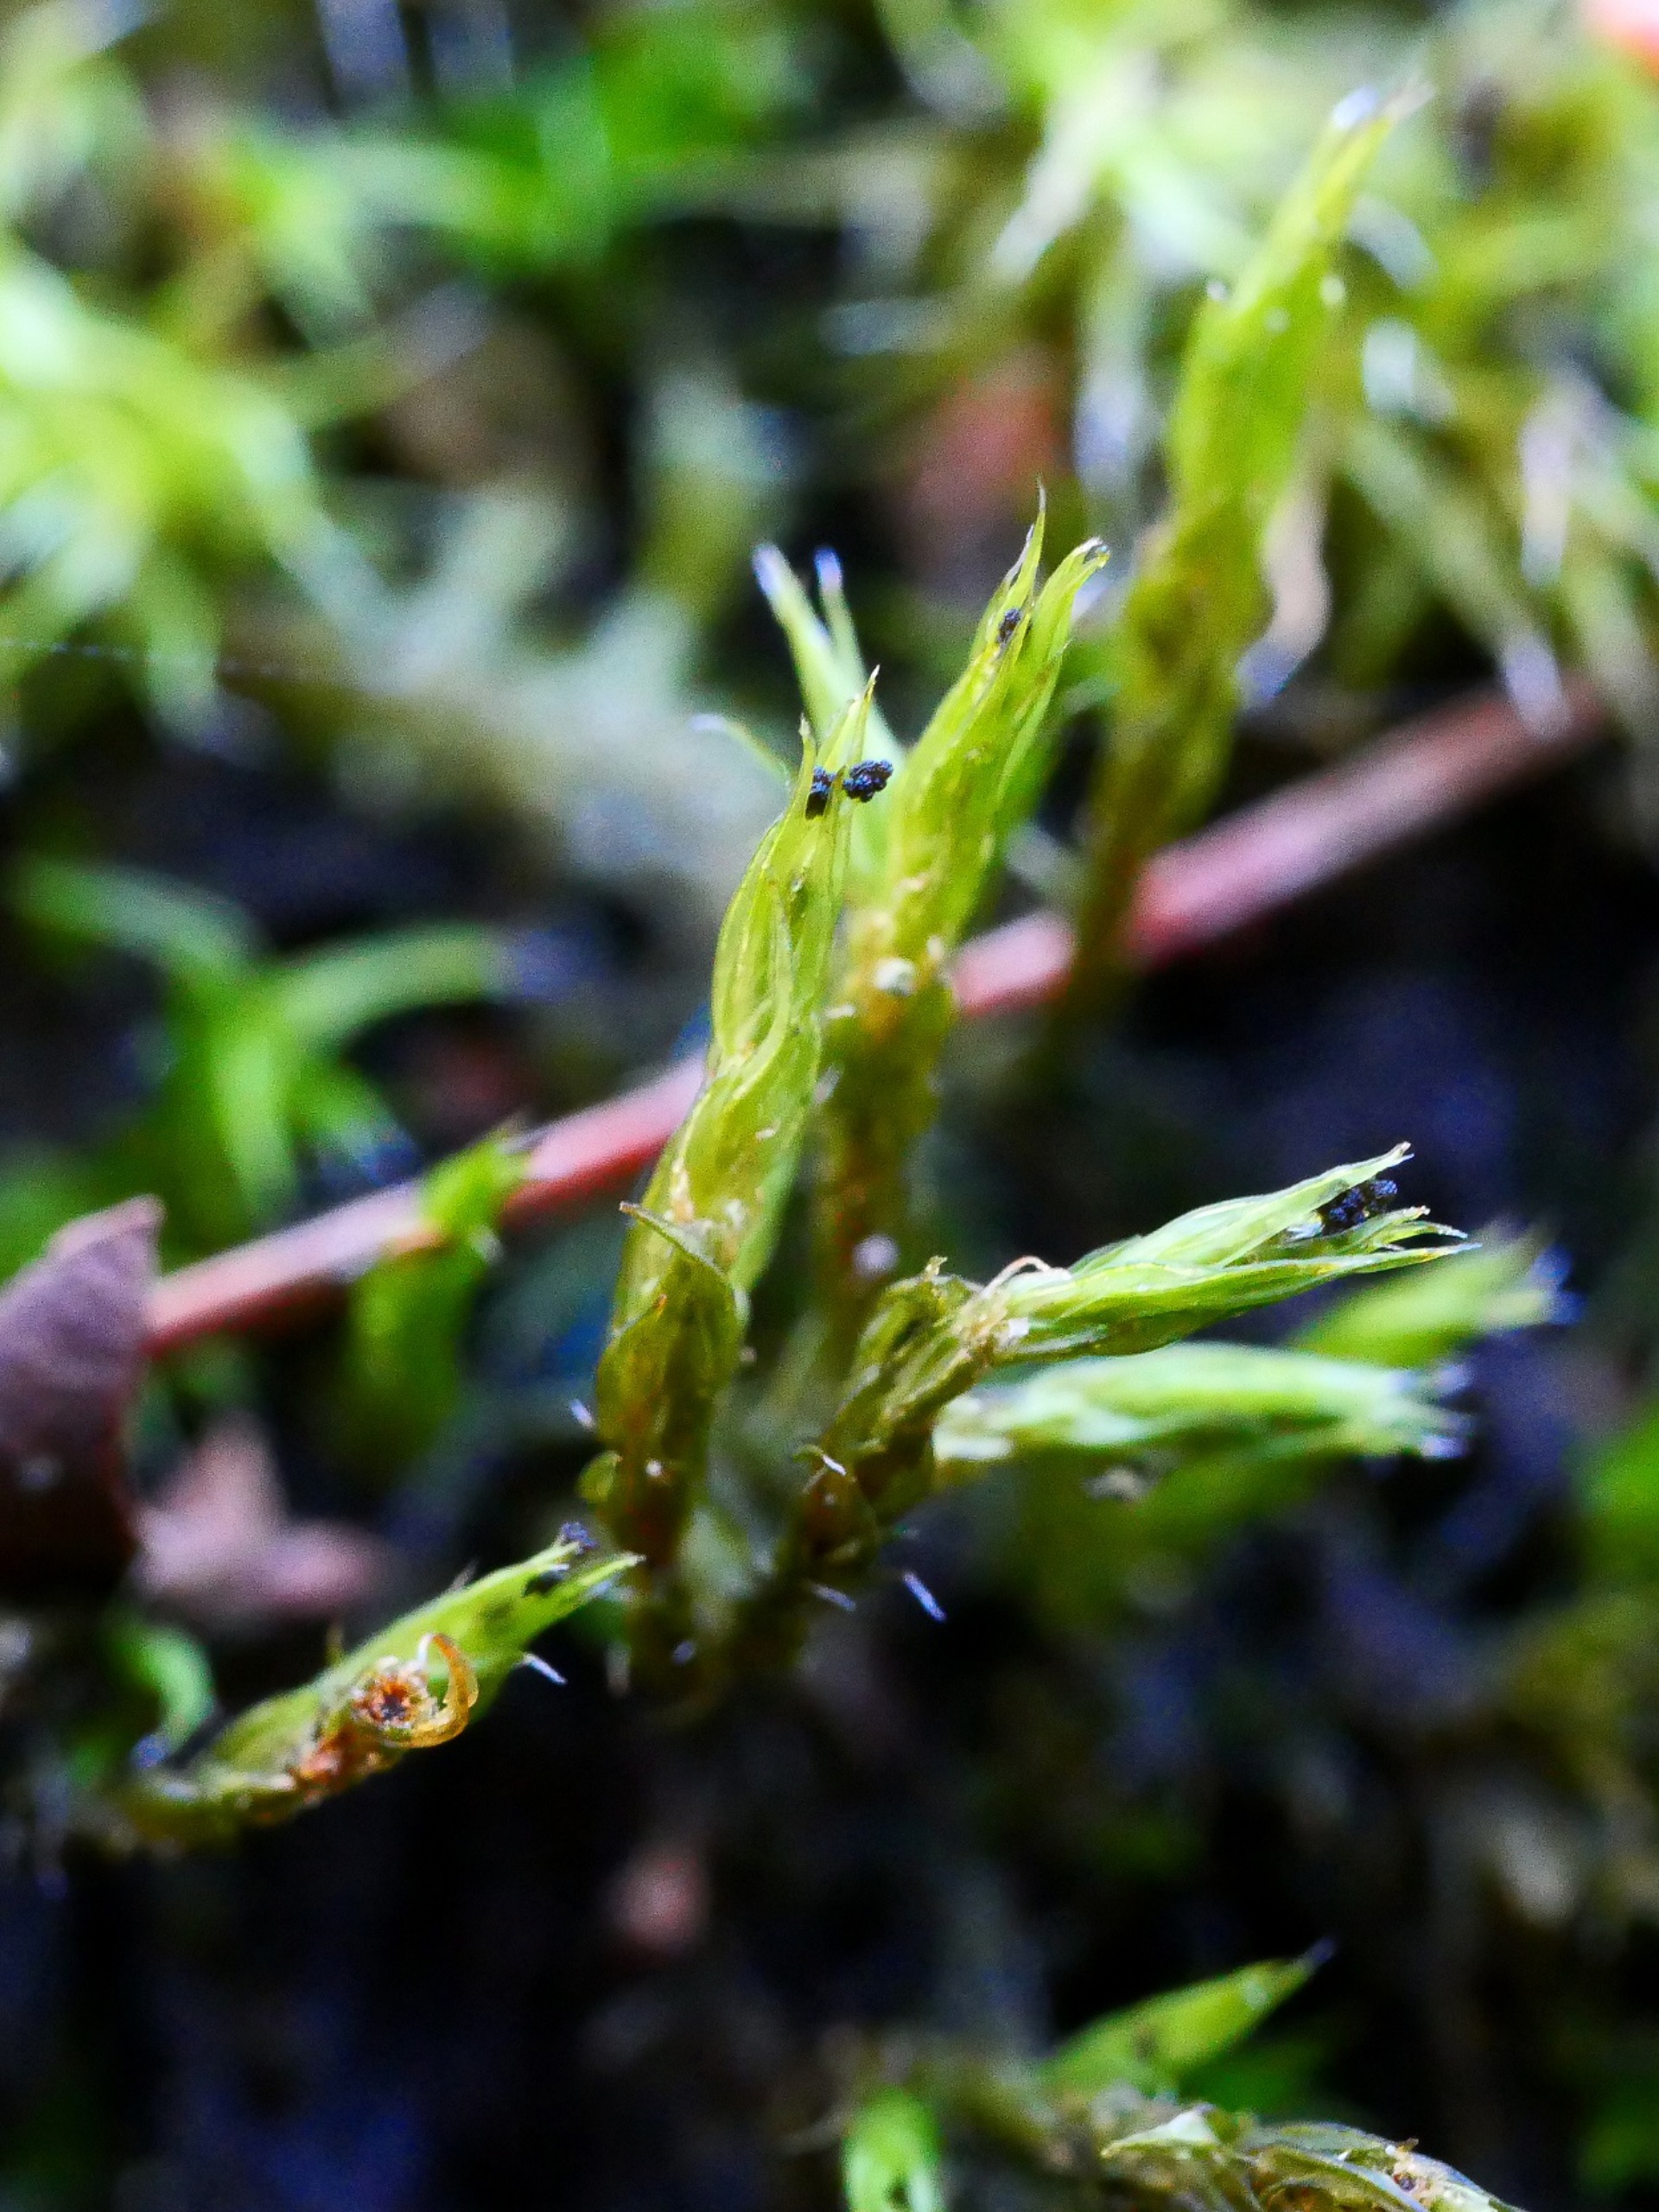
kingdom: Plantae
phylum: Bryophyta
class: Bryopsida
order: Grimmiales
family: Grimmiaceae
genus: Grimmia
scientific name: Grimmia hartmanii
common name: Hartmans gråmos
